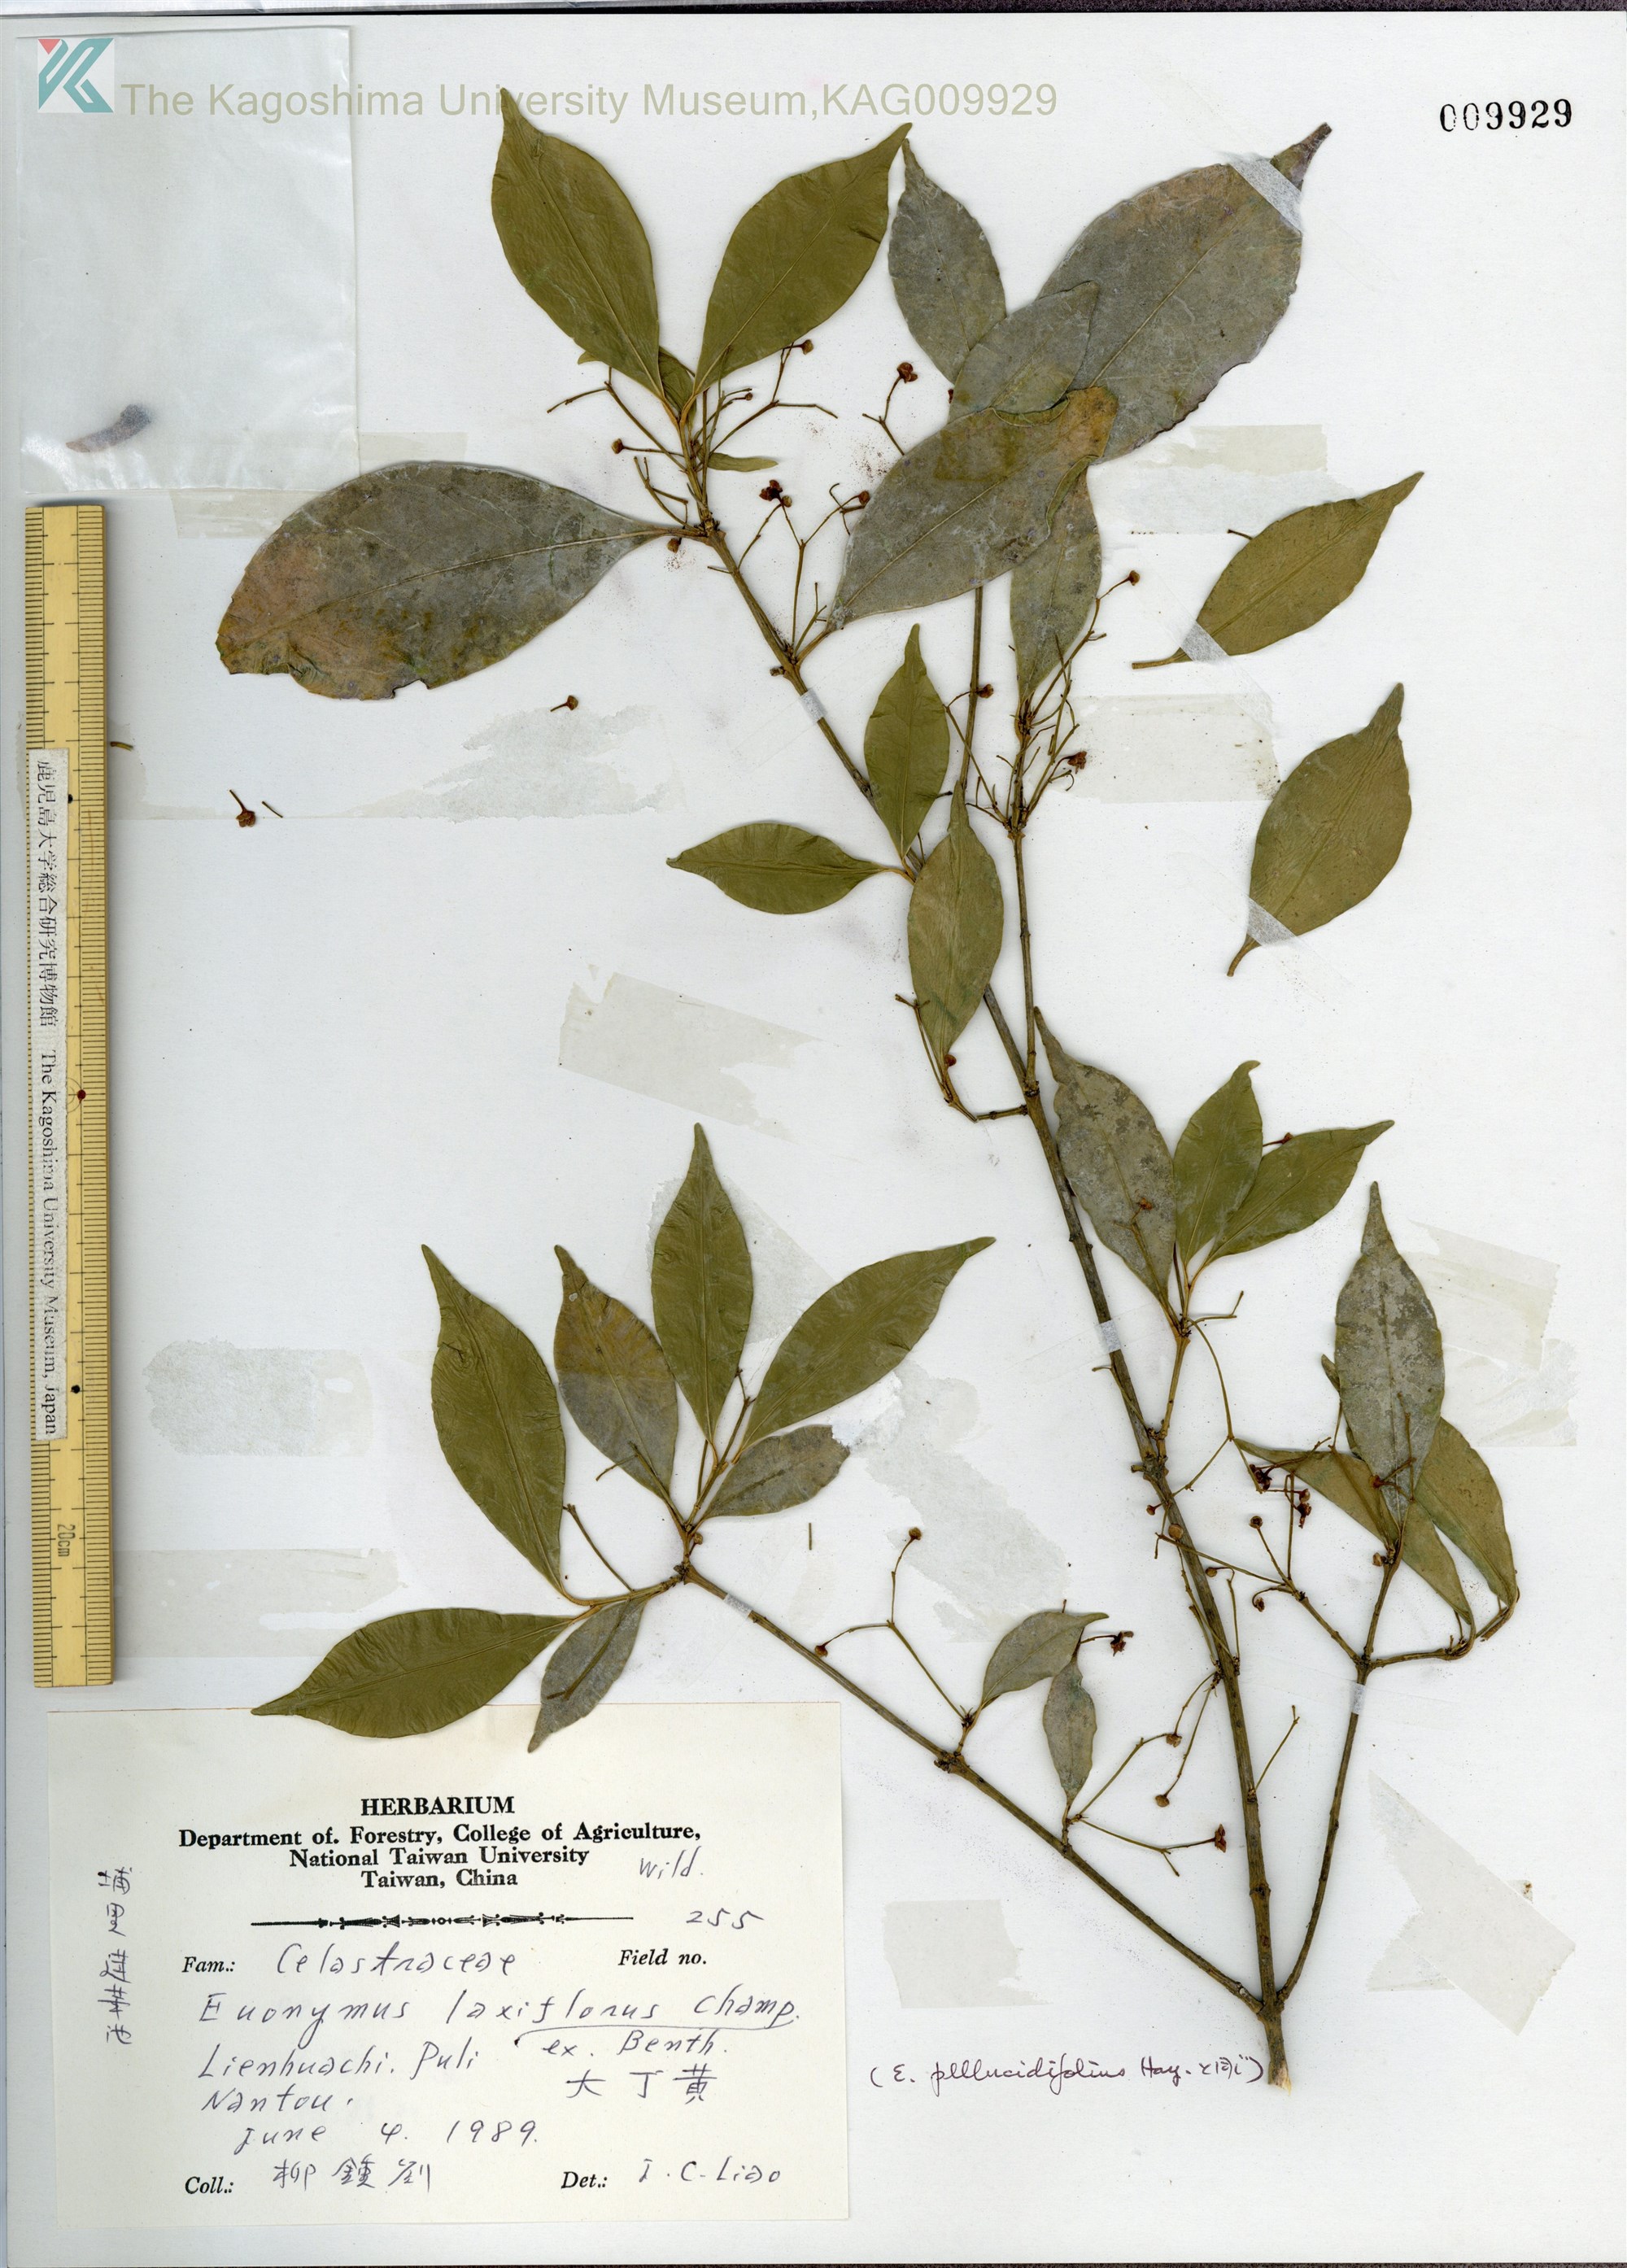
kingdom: Plantae
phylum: Tracheophyta
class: Magnoliopsida
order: Celastrales
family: Celastraceae
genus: Euonymus
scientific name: Euonymus pallidifolius
